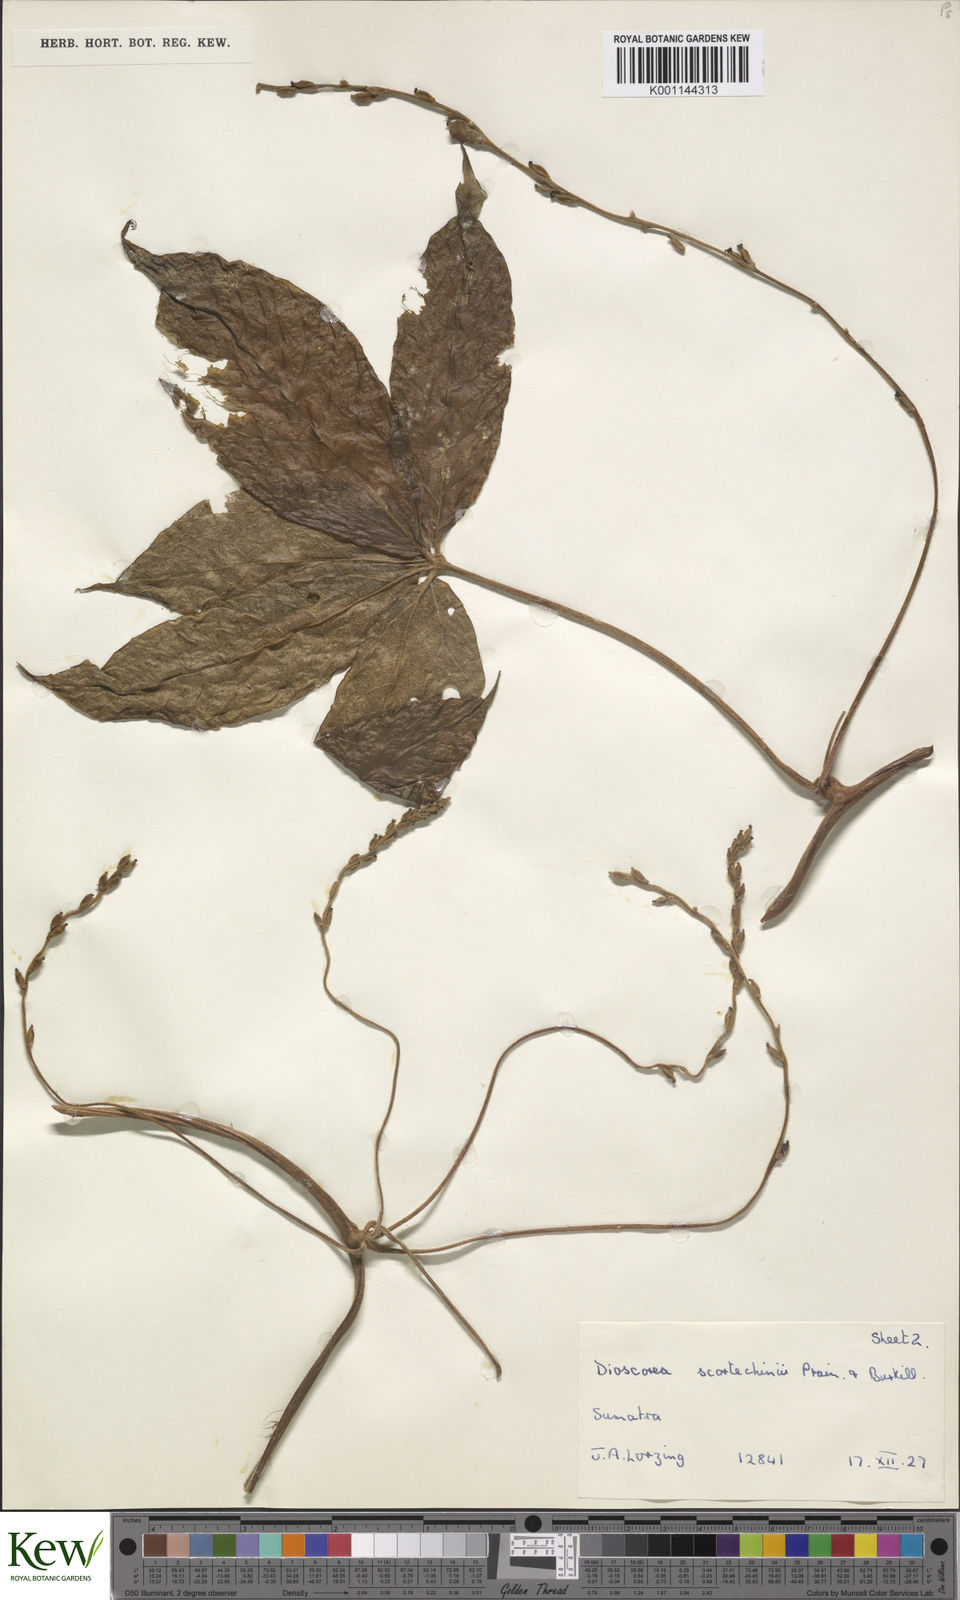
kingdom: Plantae
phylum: Tracheophyta
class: Liliopsida
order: Dioscoreales
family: Dioscoreaceae
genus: Dioscorea
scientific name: Dioscorea scortechinii
